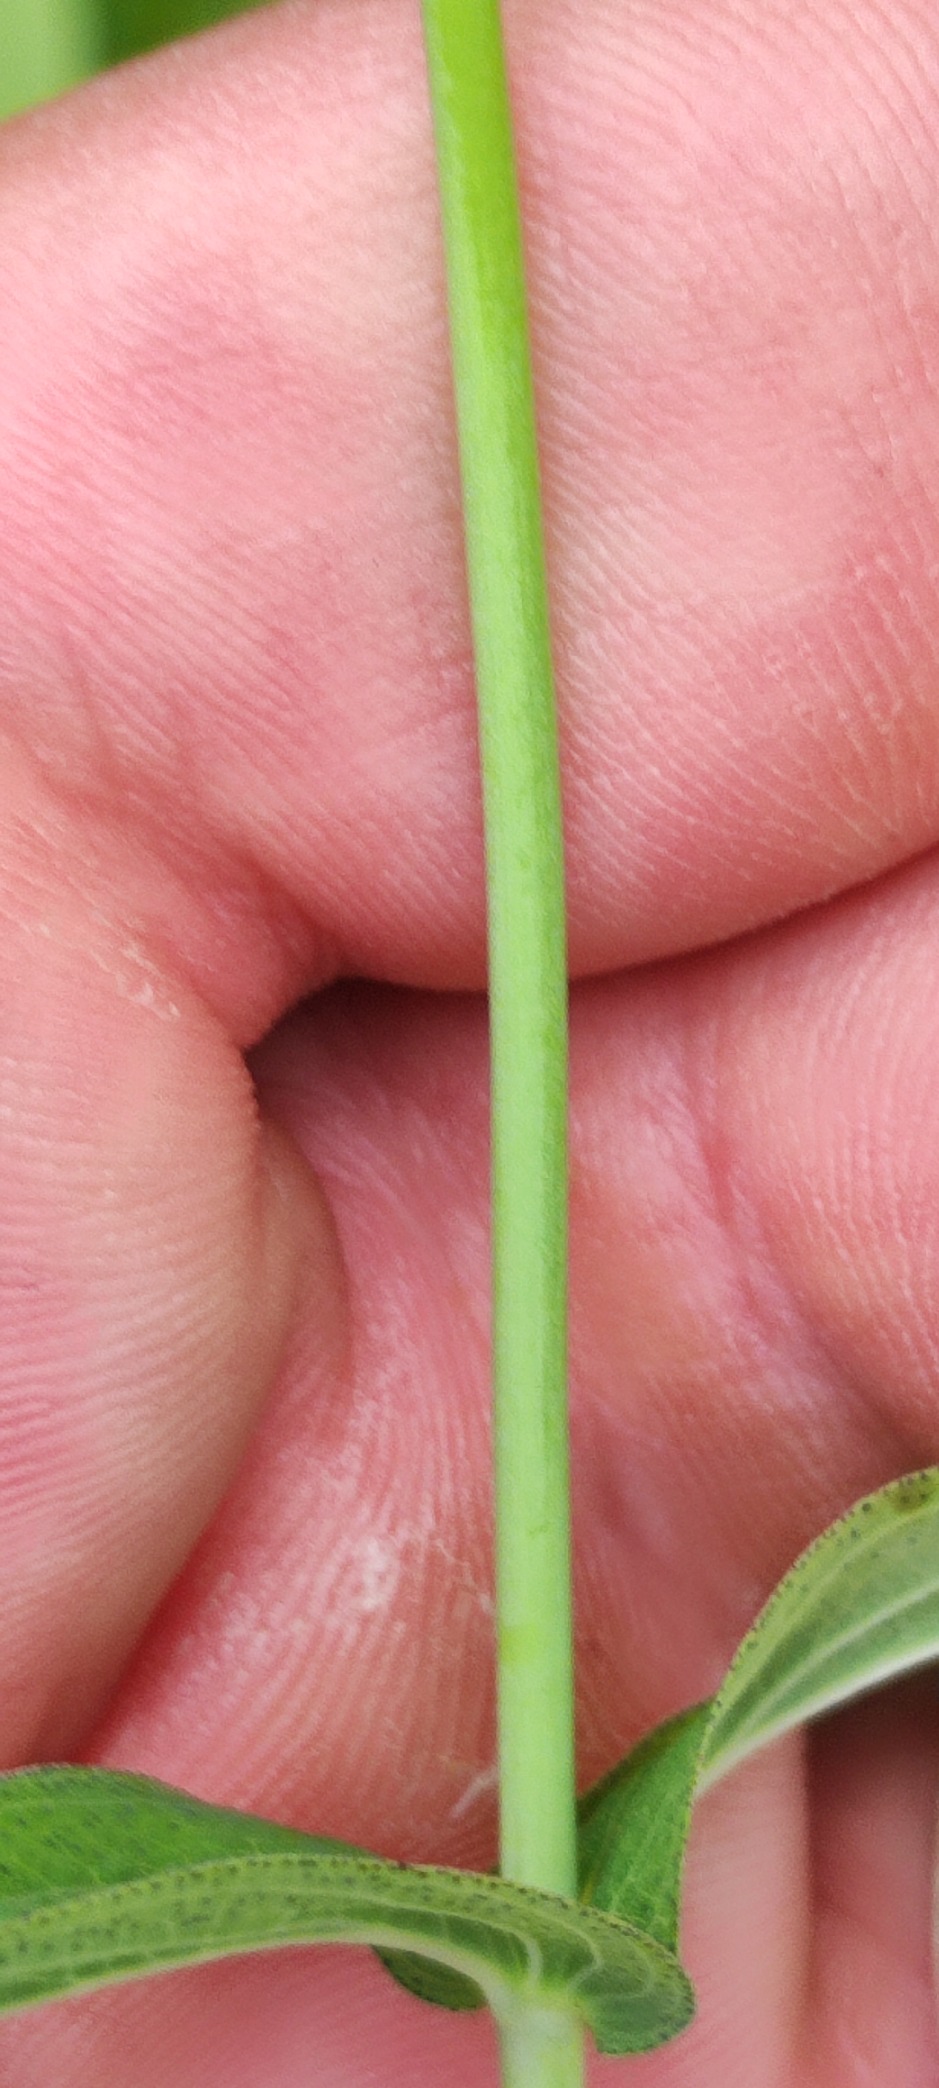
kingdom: Plantae
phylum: Tracheophyta
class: Magnoliopsida
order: Malpighiales
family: Hypericaceae
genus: Hypericum
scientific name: Hypericum montanum
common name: Bjerg-perikon
